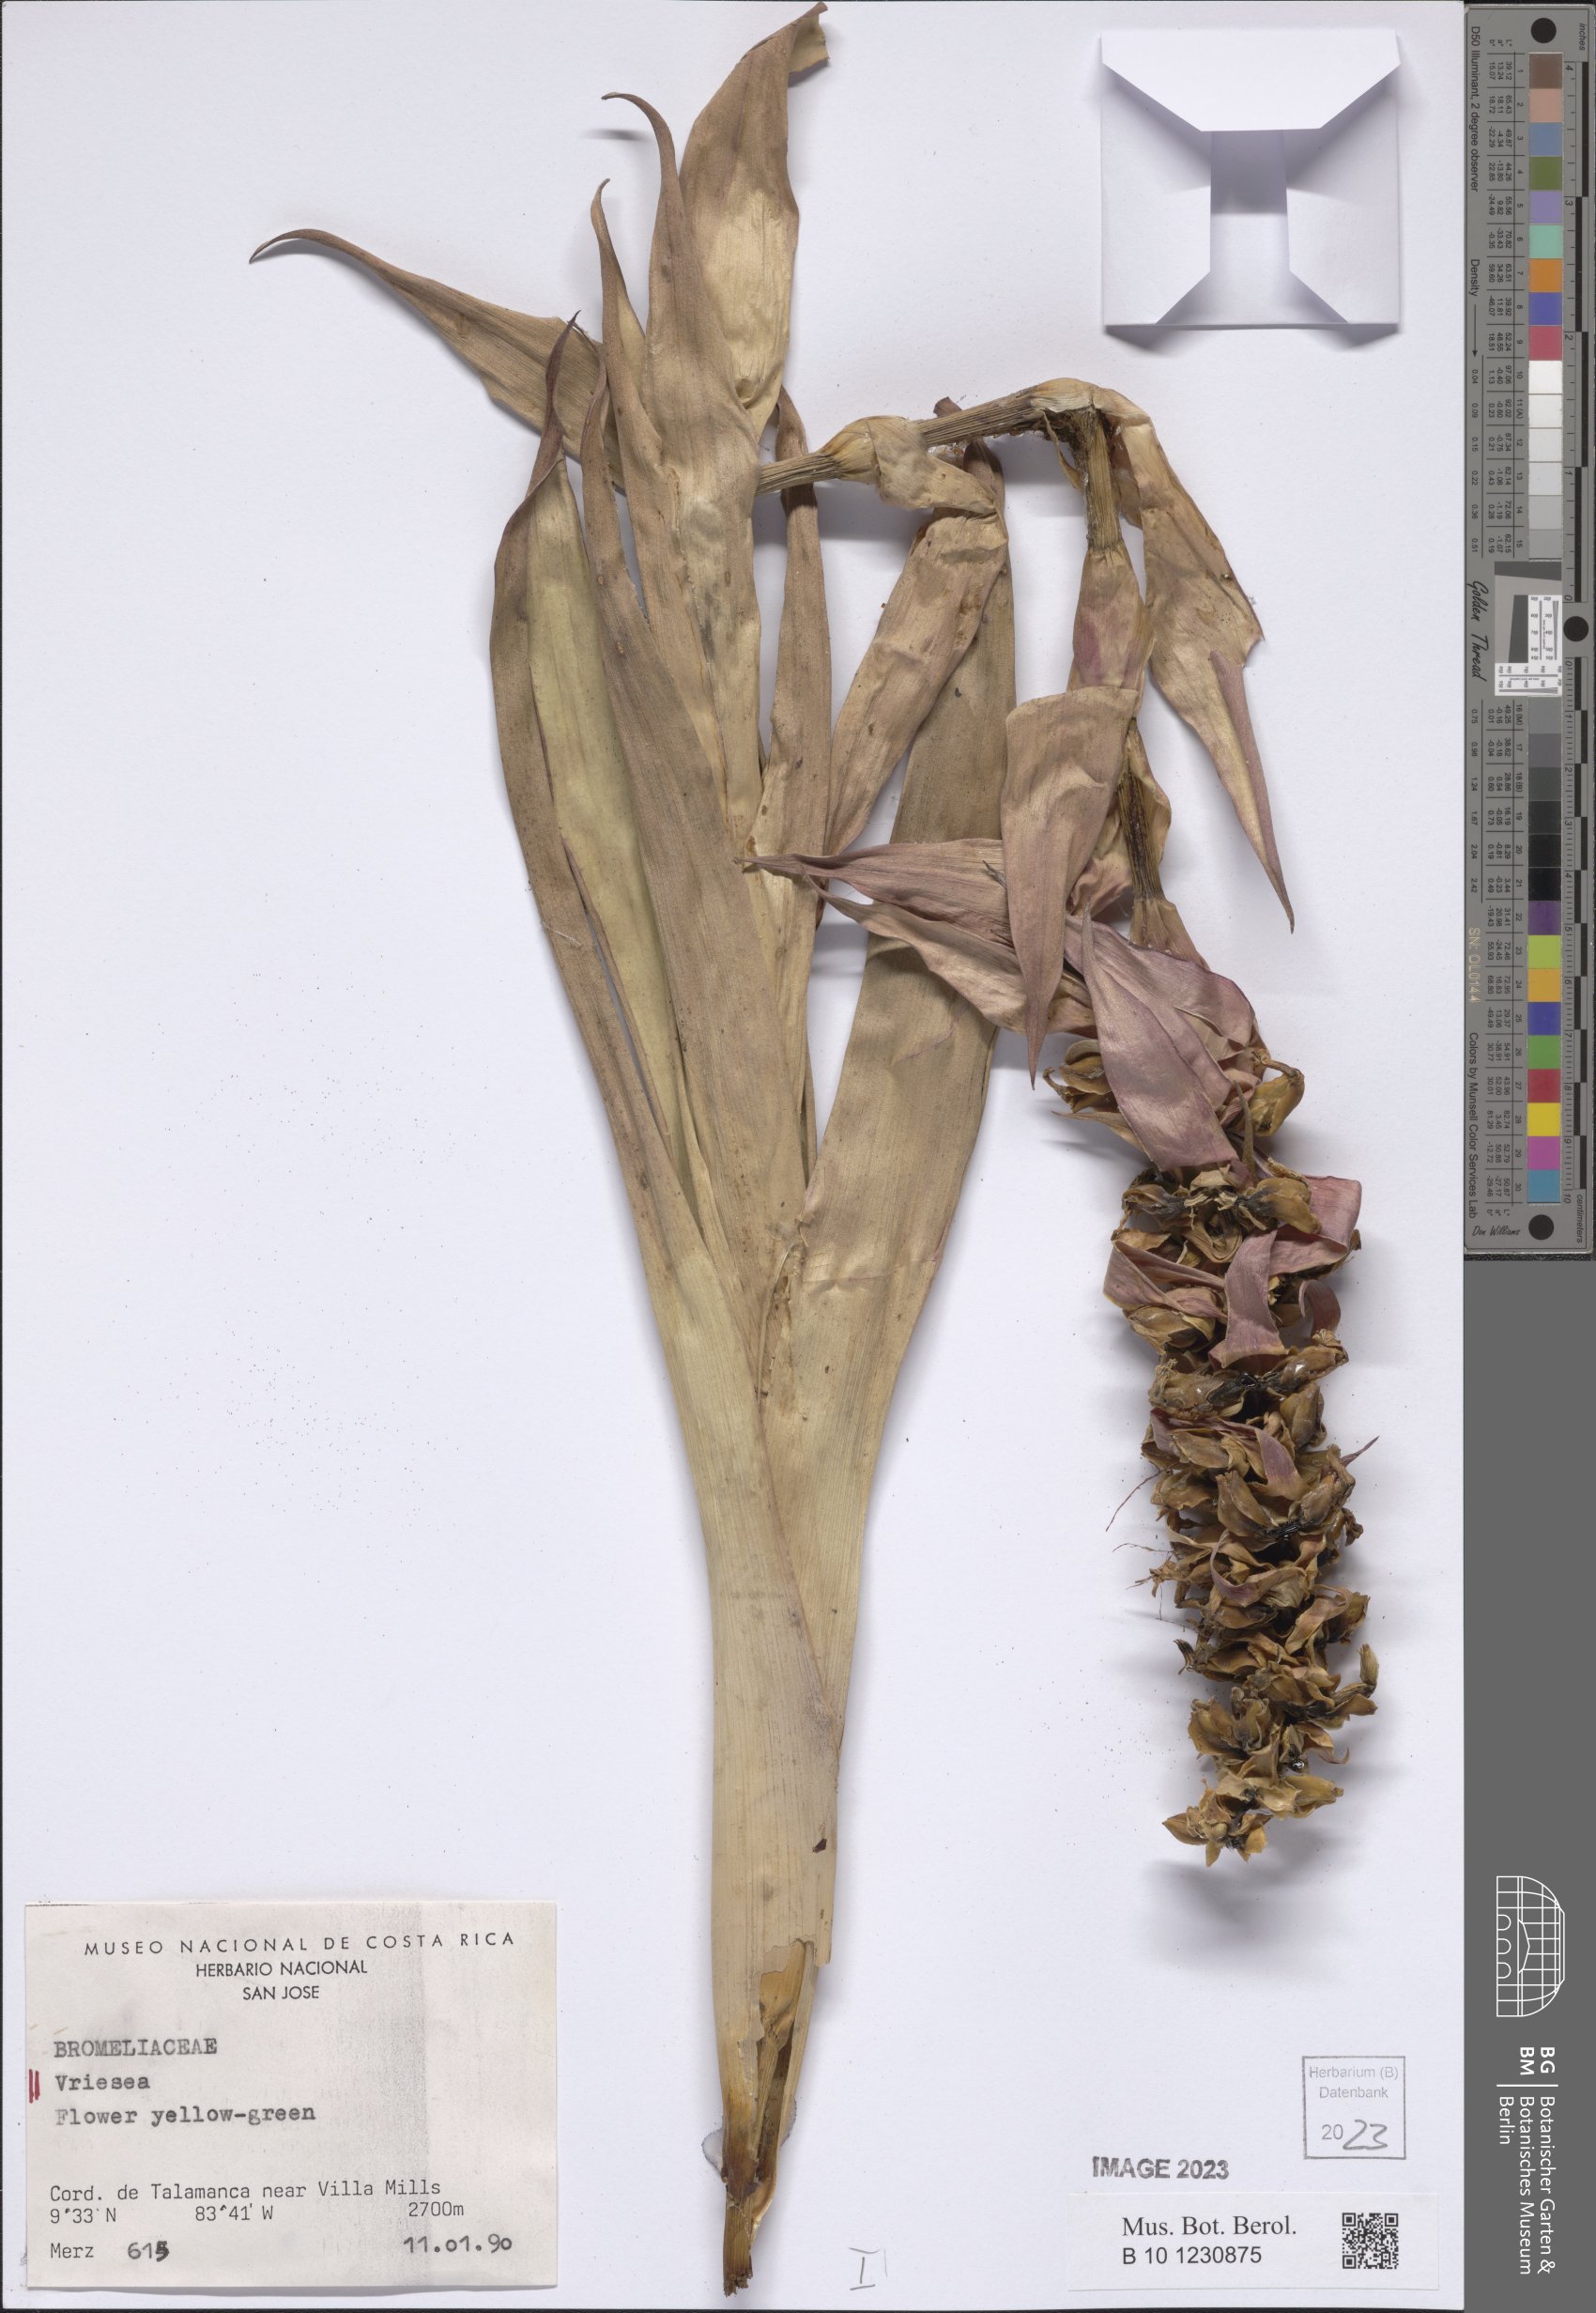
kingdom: Plantae
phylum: Tracheophyta
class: Liliopsida
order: Poales
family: Bromeliaceae
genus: Vriesea
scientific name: Vriesea
